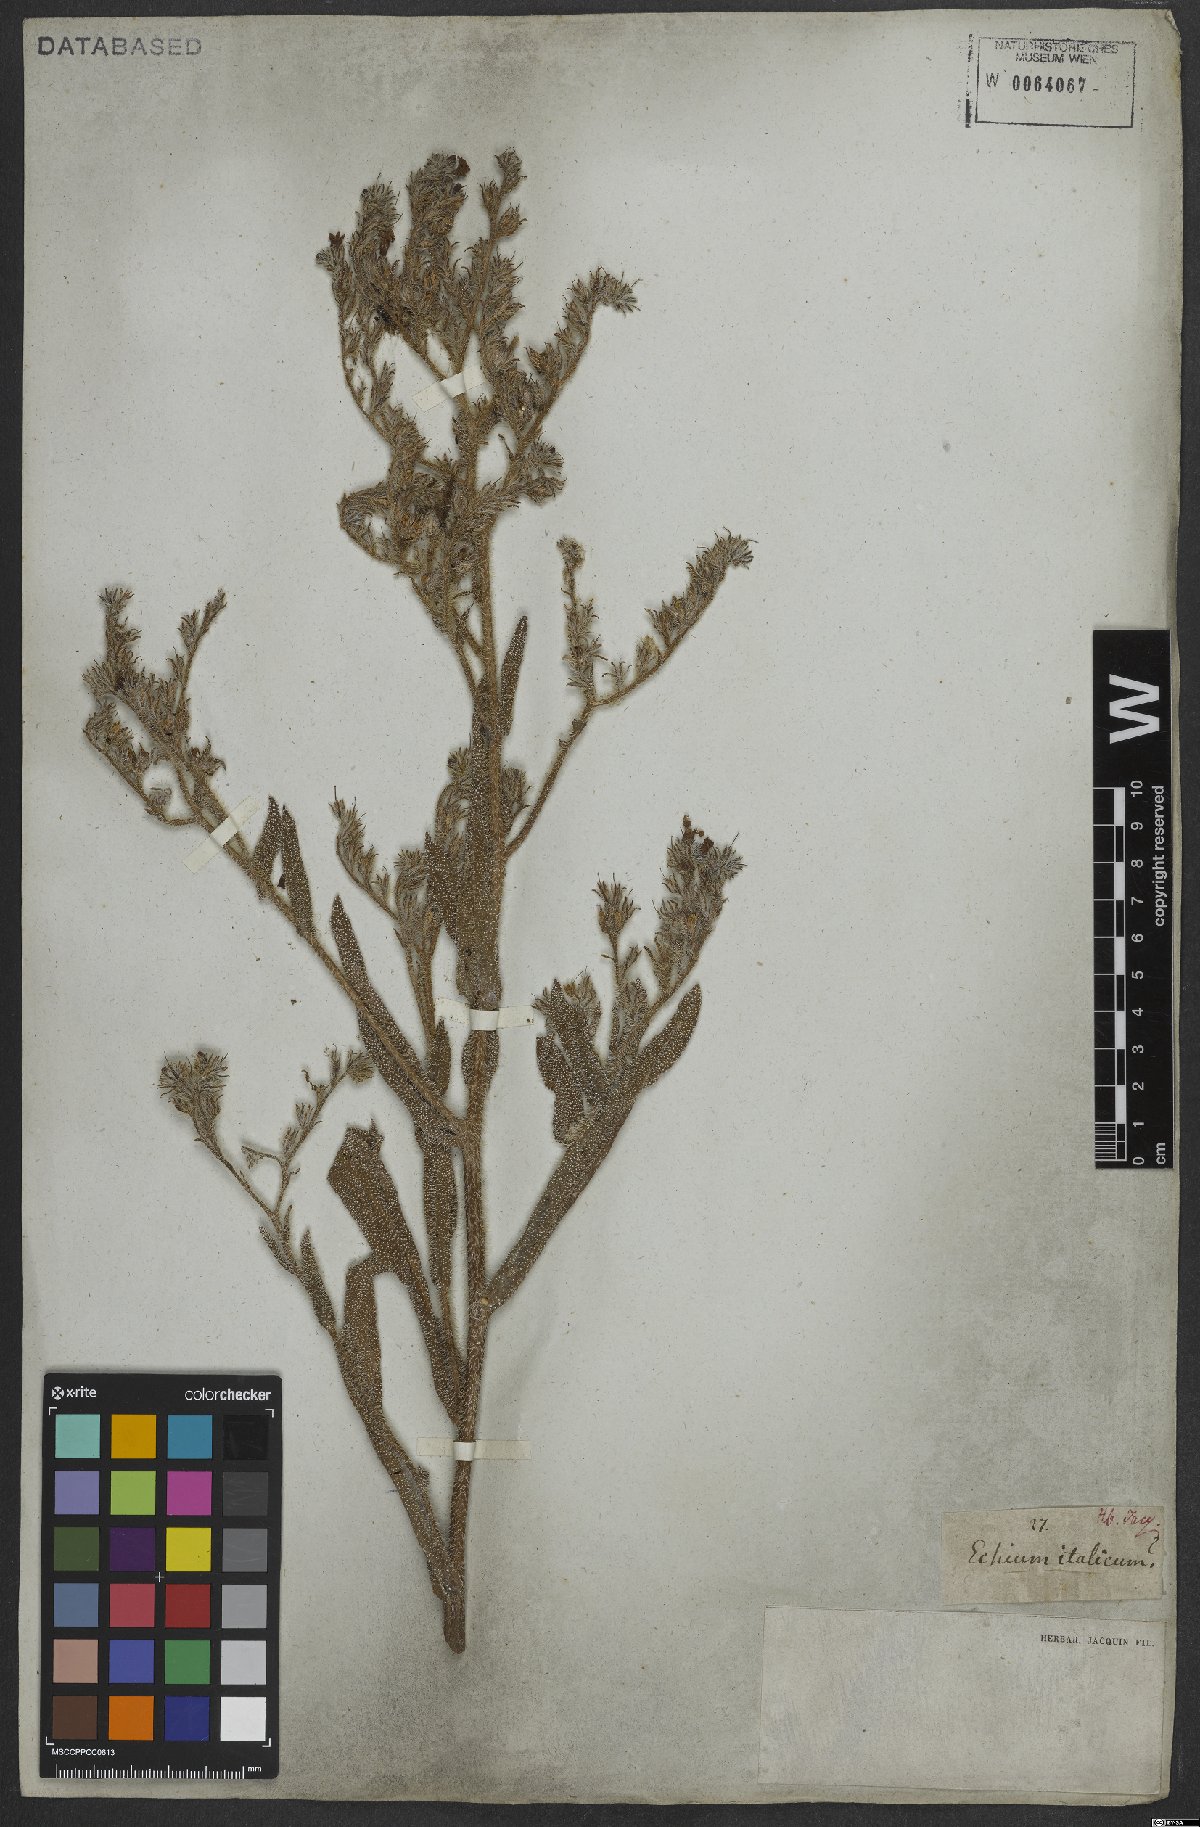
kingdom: Plantae
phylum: Tracheophyta
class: Magnoliopsida
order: Boraginales
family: Boraginaceae
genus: Echium
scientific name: Echium italicum
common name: Italian viper's bugloss
